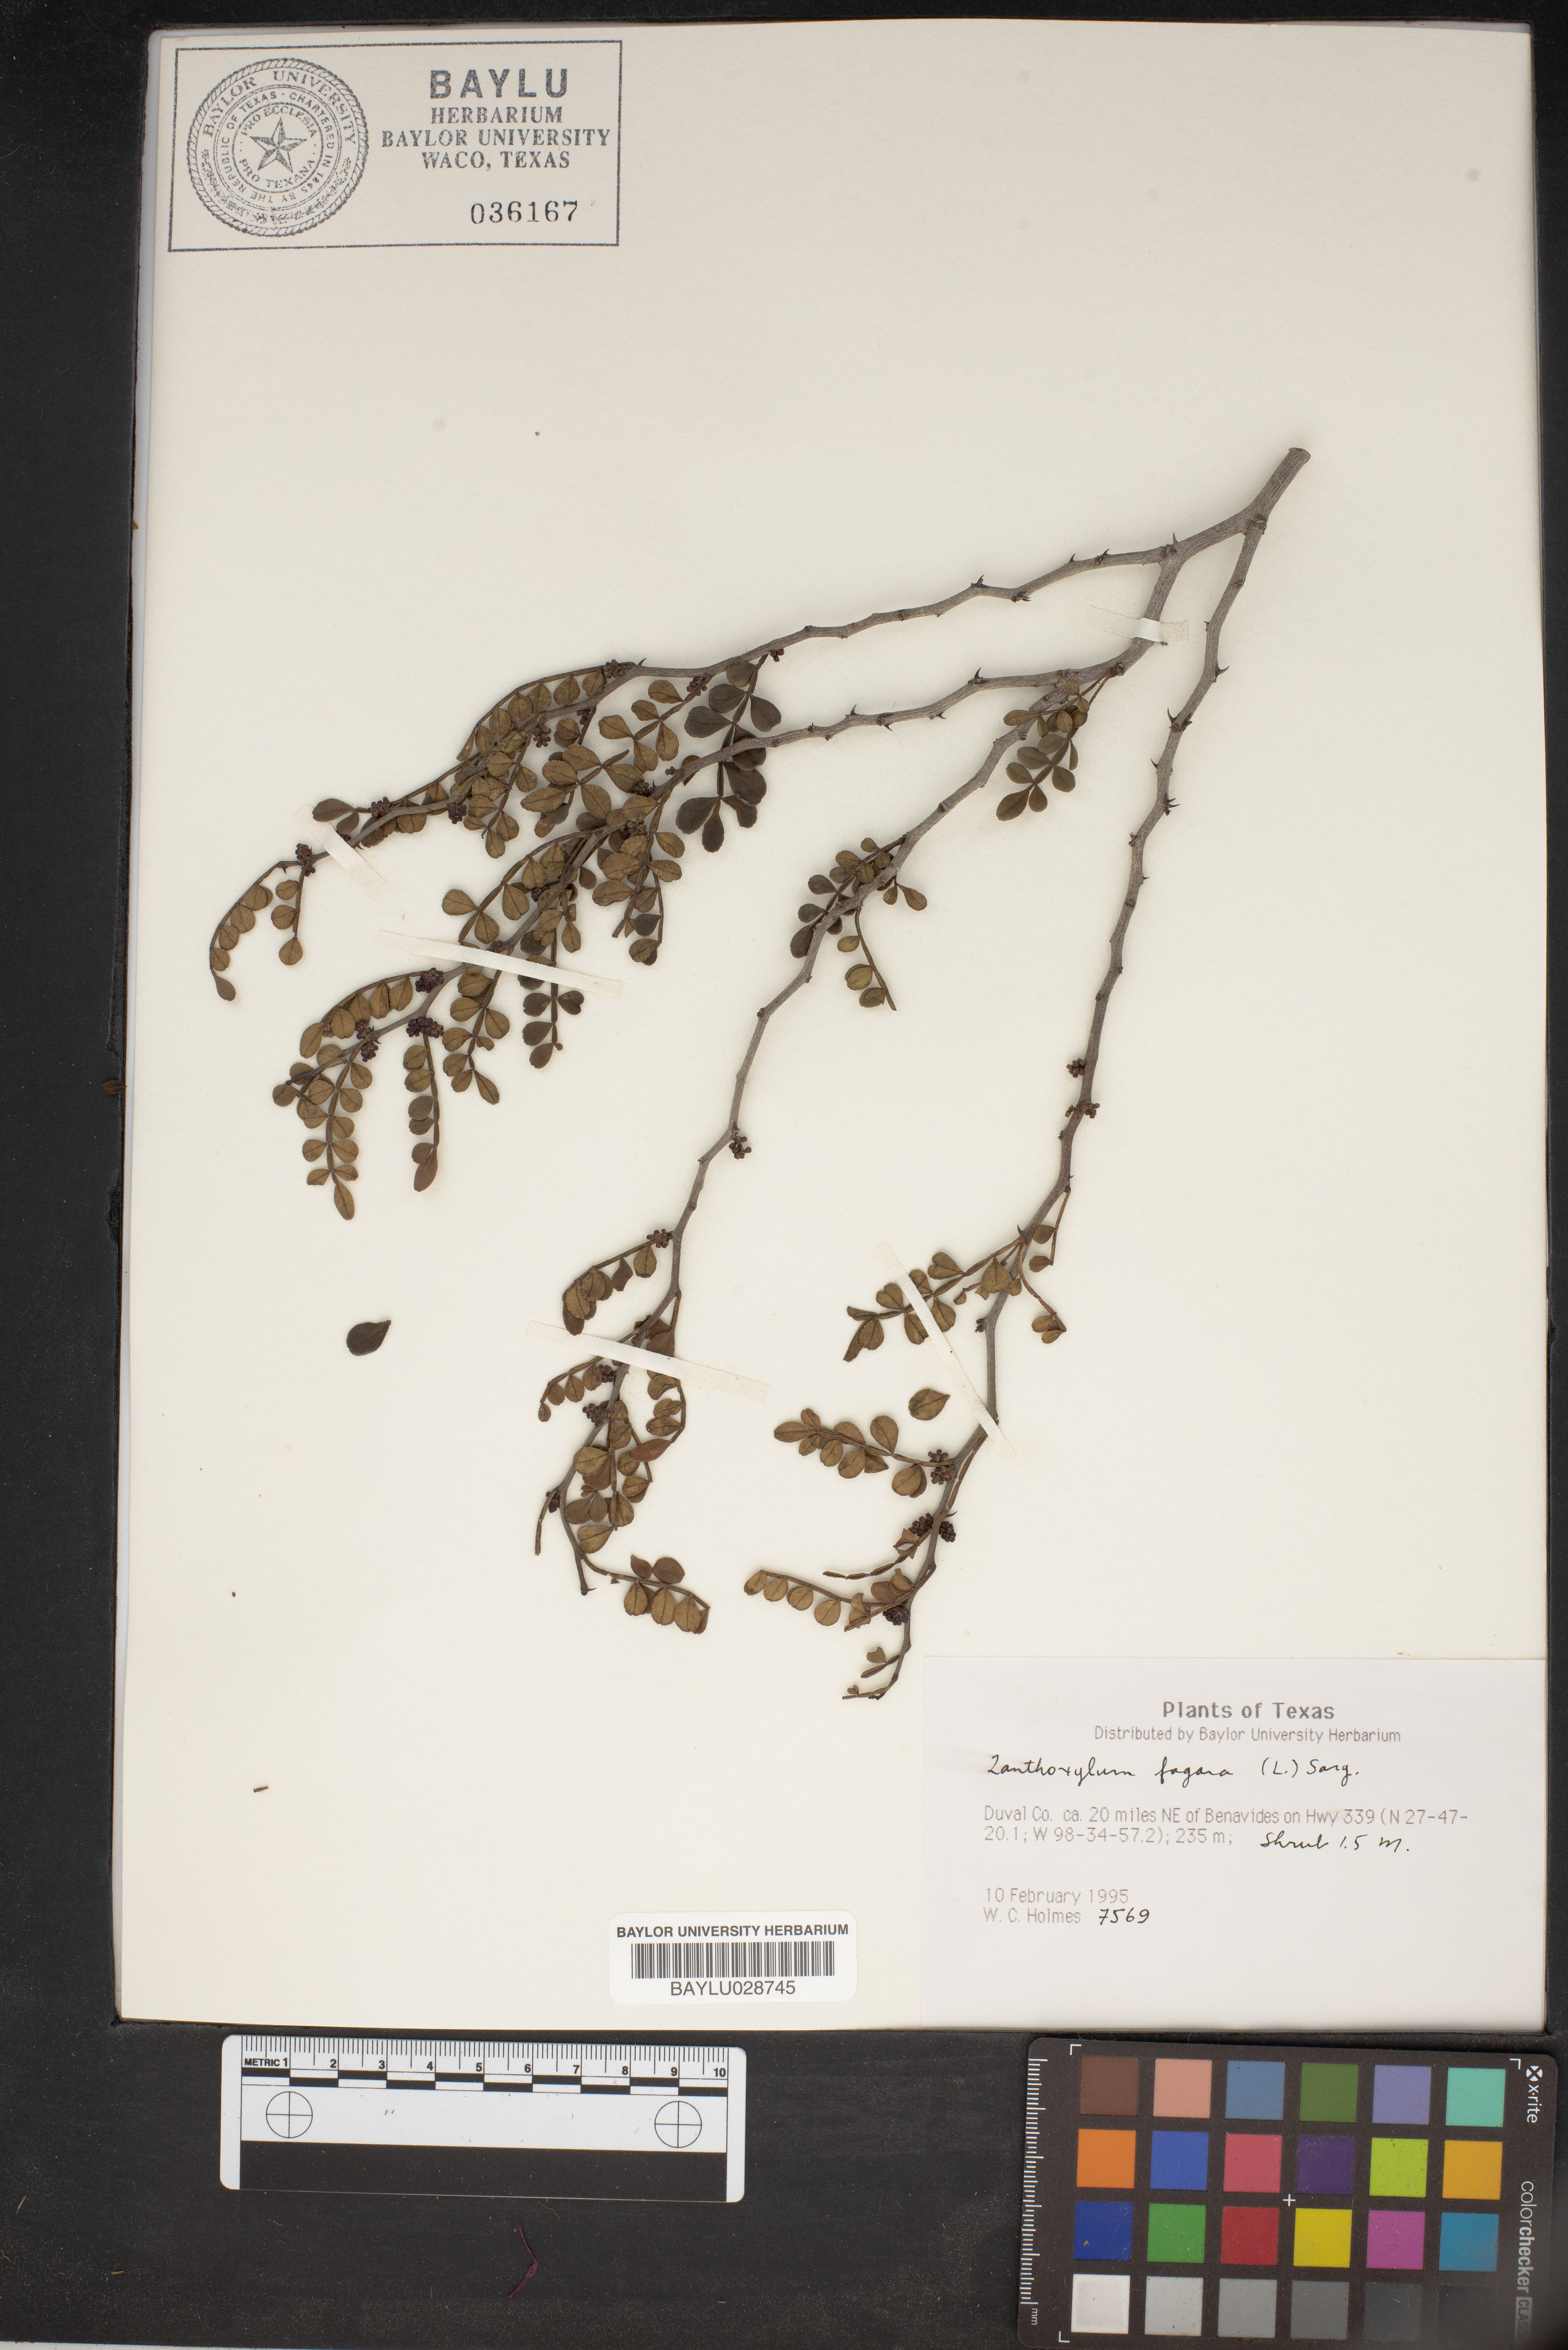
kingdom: Plantae
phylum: Tracheophyta
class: Magnoliopsida
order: Sapindales
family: Rutaceae
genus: Zanthoxylum
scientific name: Zanthoxylum fagara
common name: Lime prickly-ash
